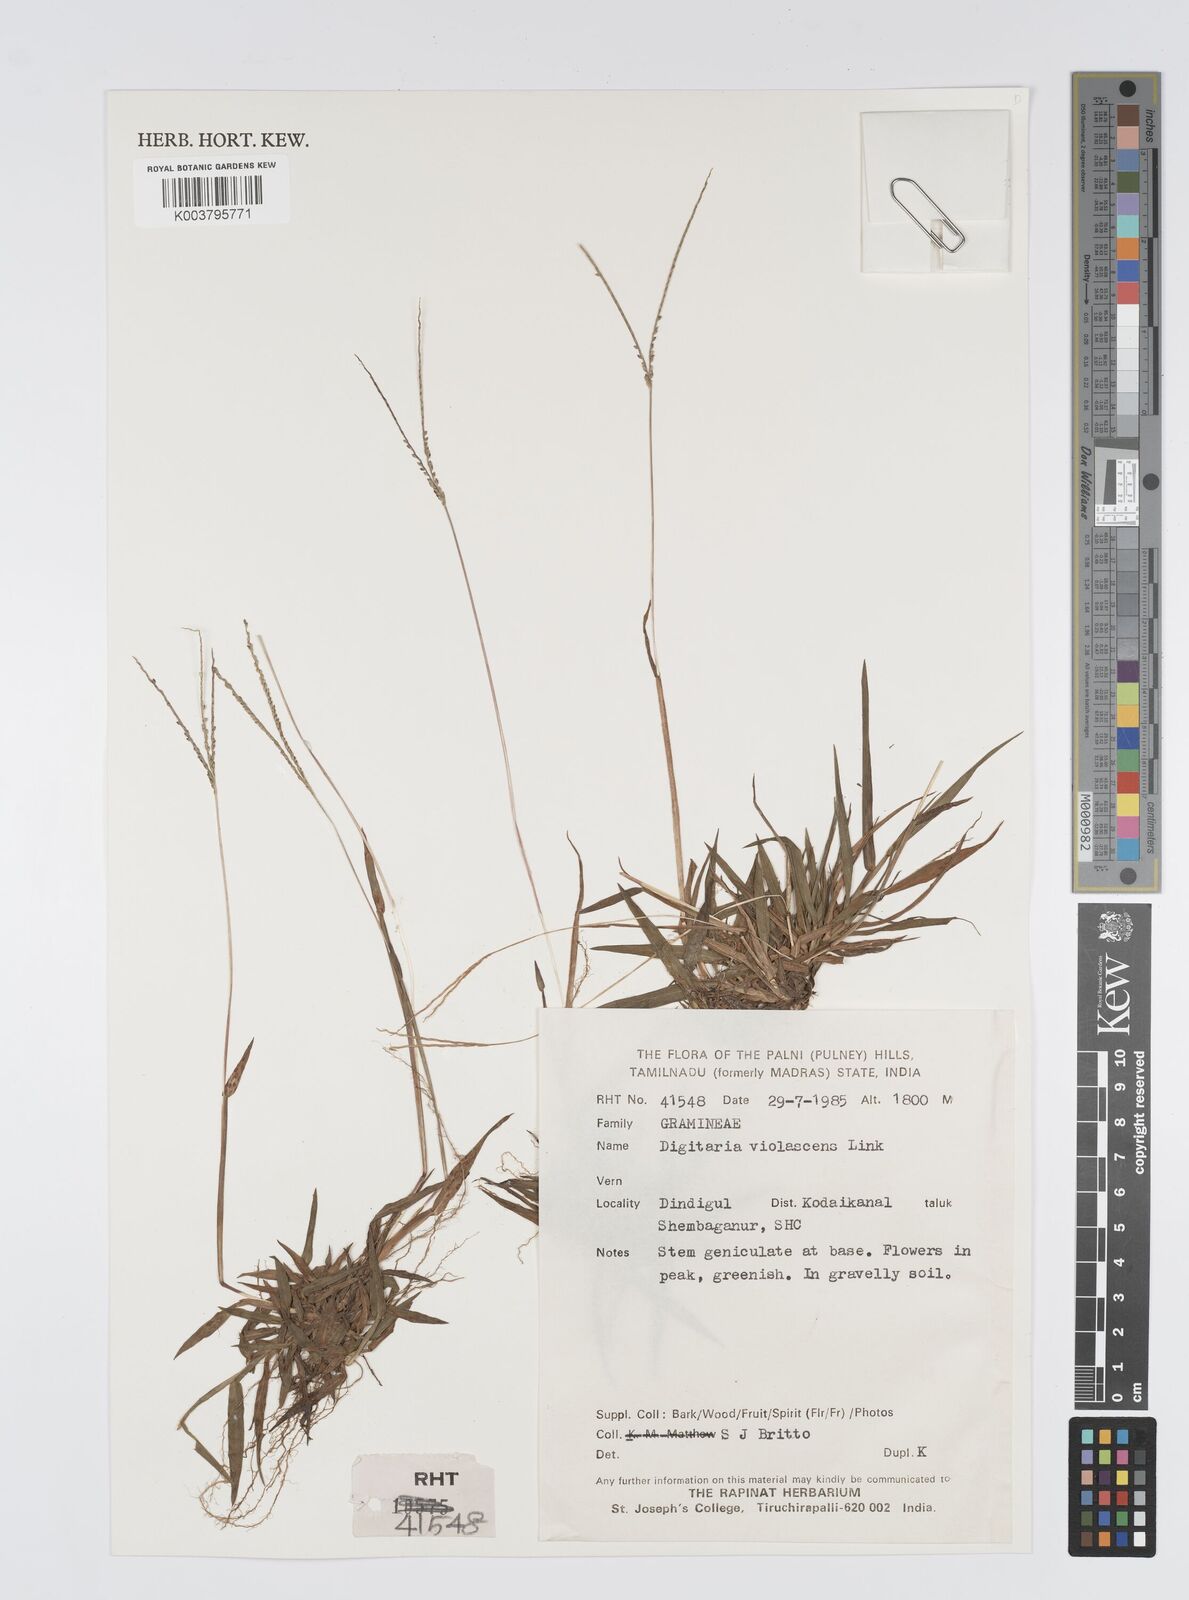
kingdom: Plantae
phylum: Tracheophyta
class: Liliopsida
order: Poales
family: Poaceae
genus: Digitaria
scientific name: Digitaria violascens
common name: Violet crabgrass
